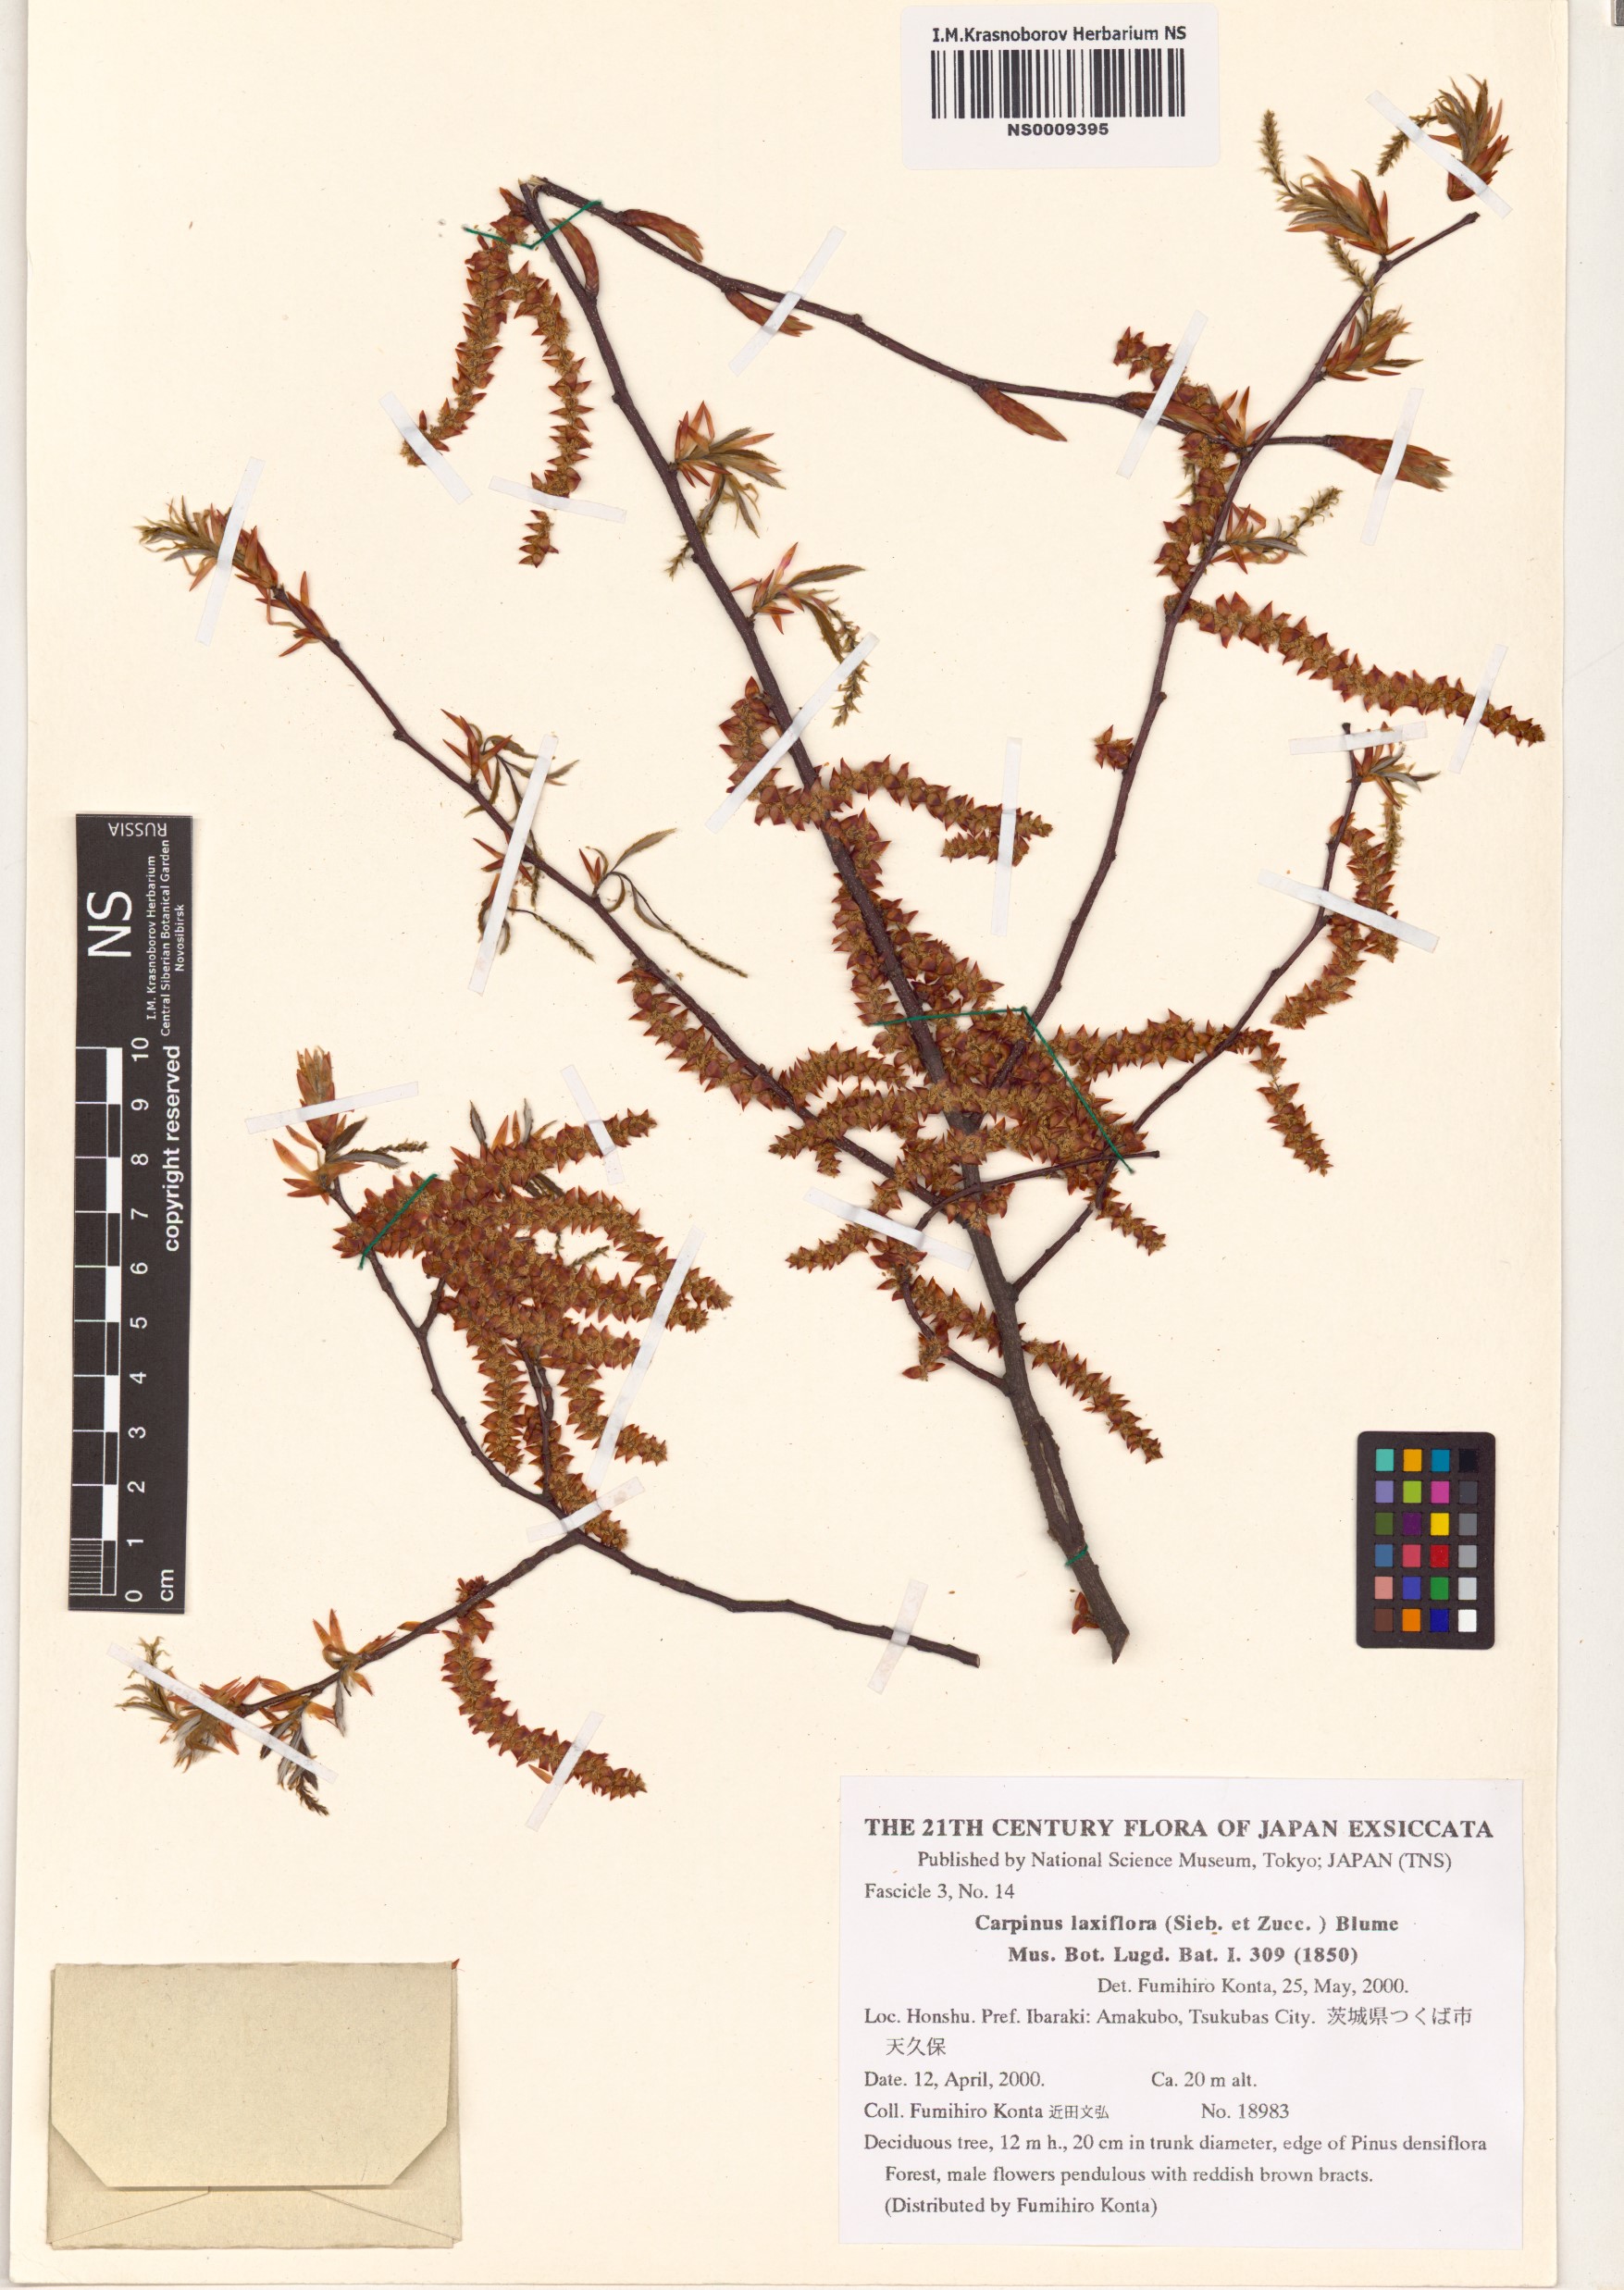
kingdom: Plantae
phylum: Tracheophyta
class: Magnoliopsida
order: Fagales
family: Betulaceae
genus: Carpinus
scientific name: Carpinus laxiflora
